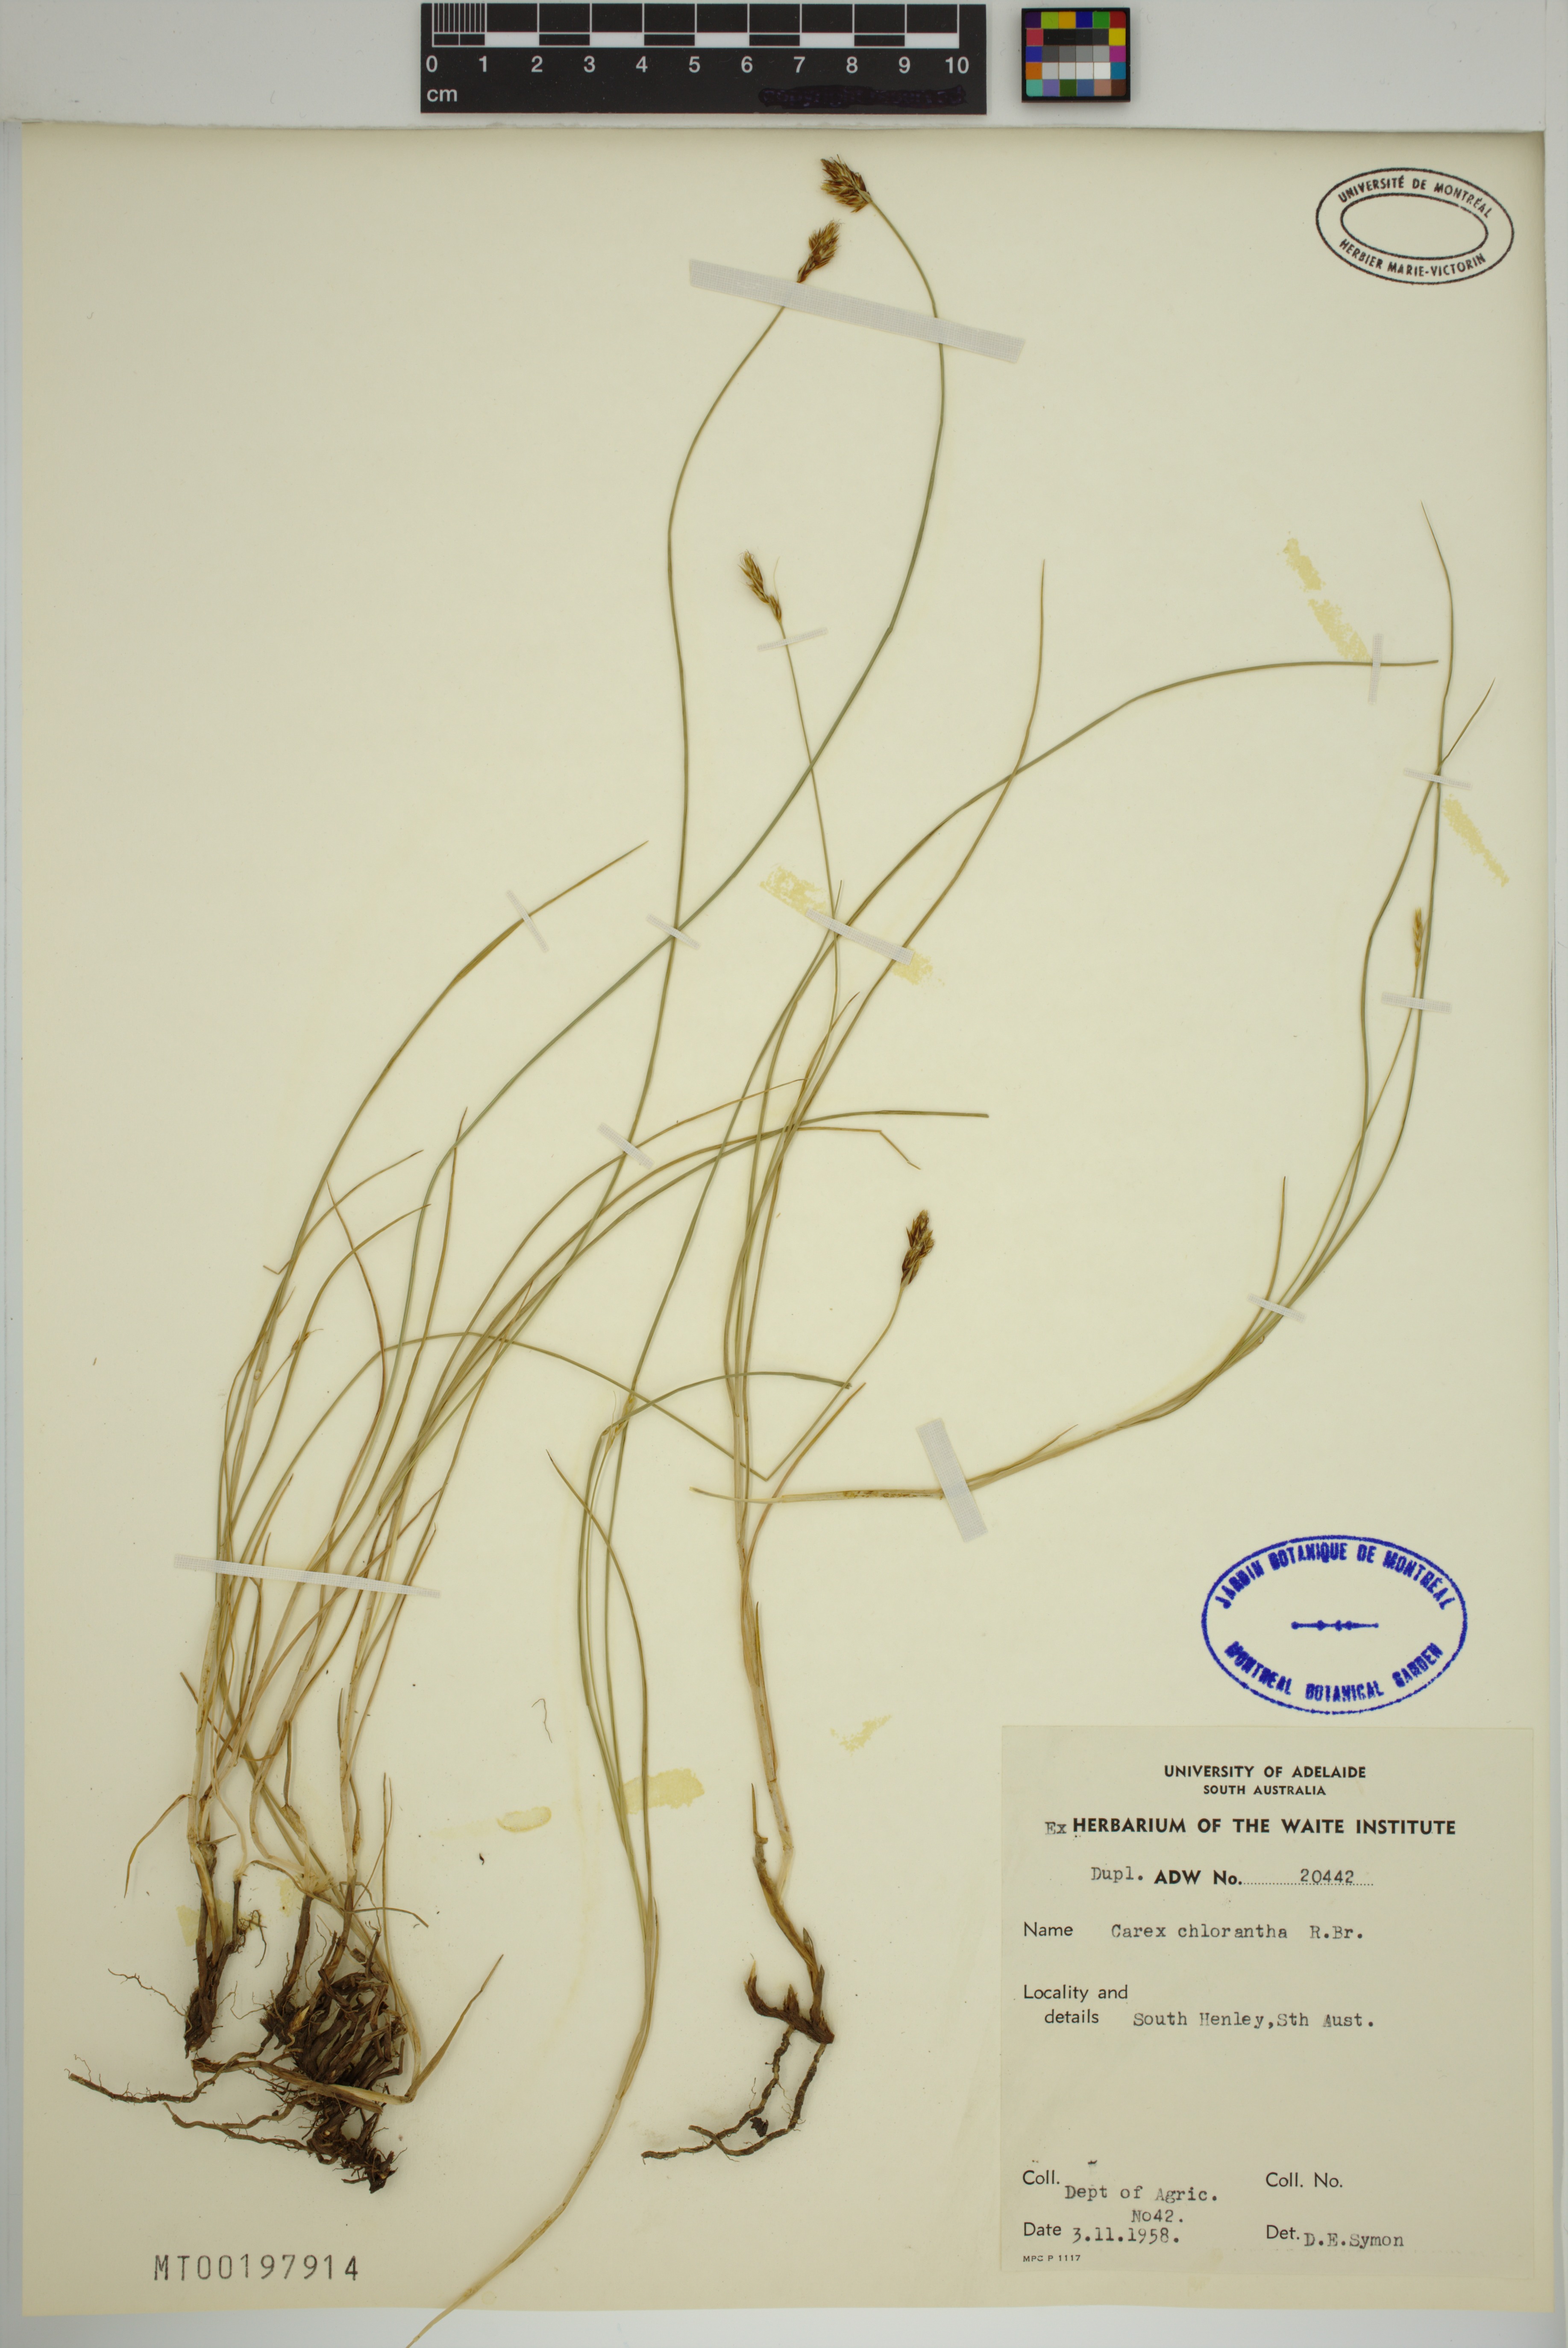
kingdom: Plantae
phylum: Tracheophyta
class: Liliopsida
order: Poales
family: Cyperaceae
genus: Carex
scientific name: Carex chlorantha
